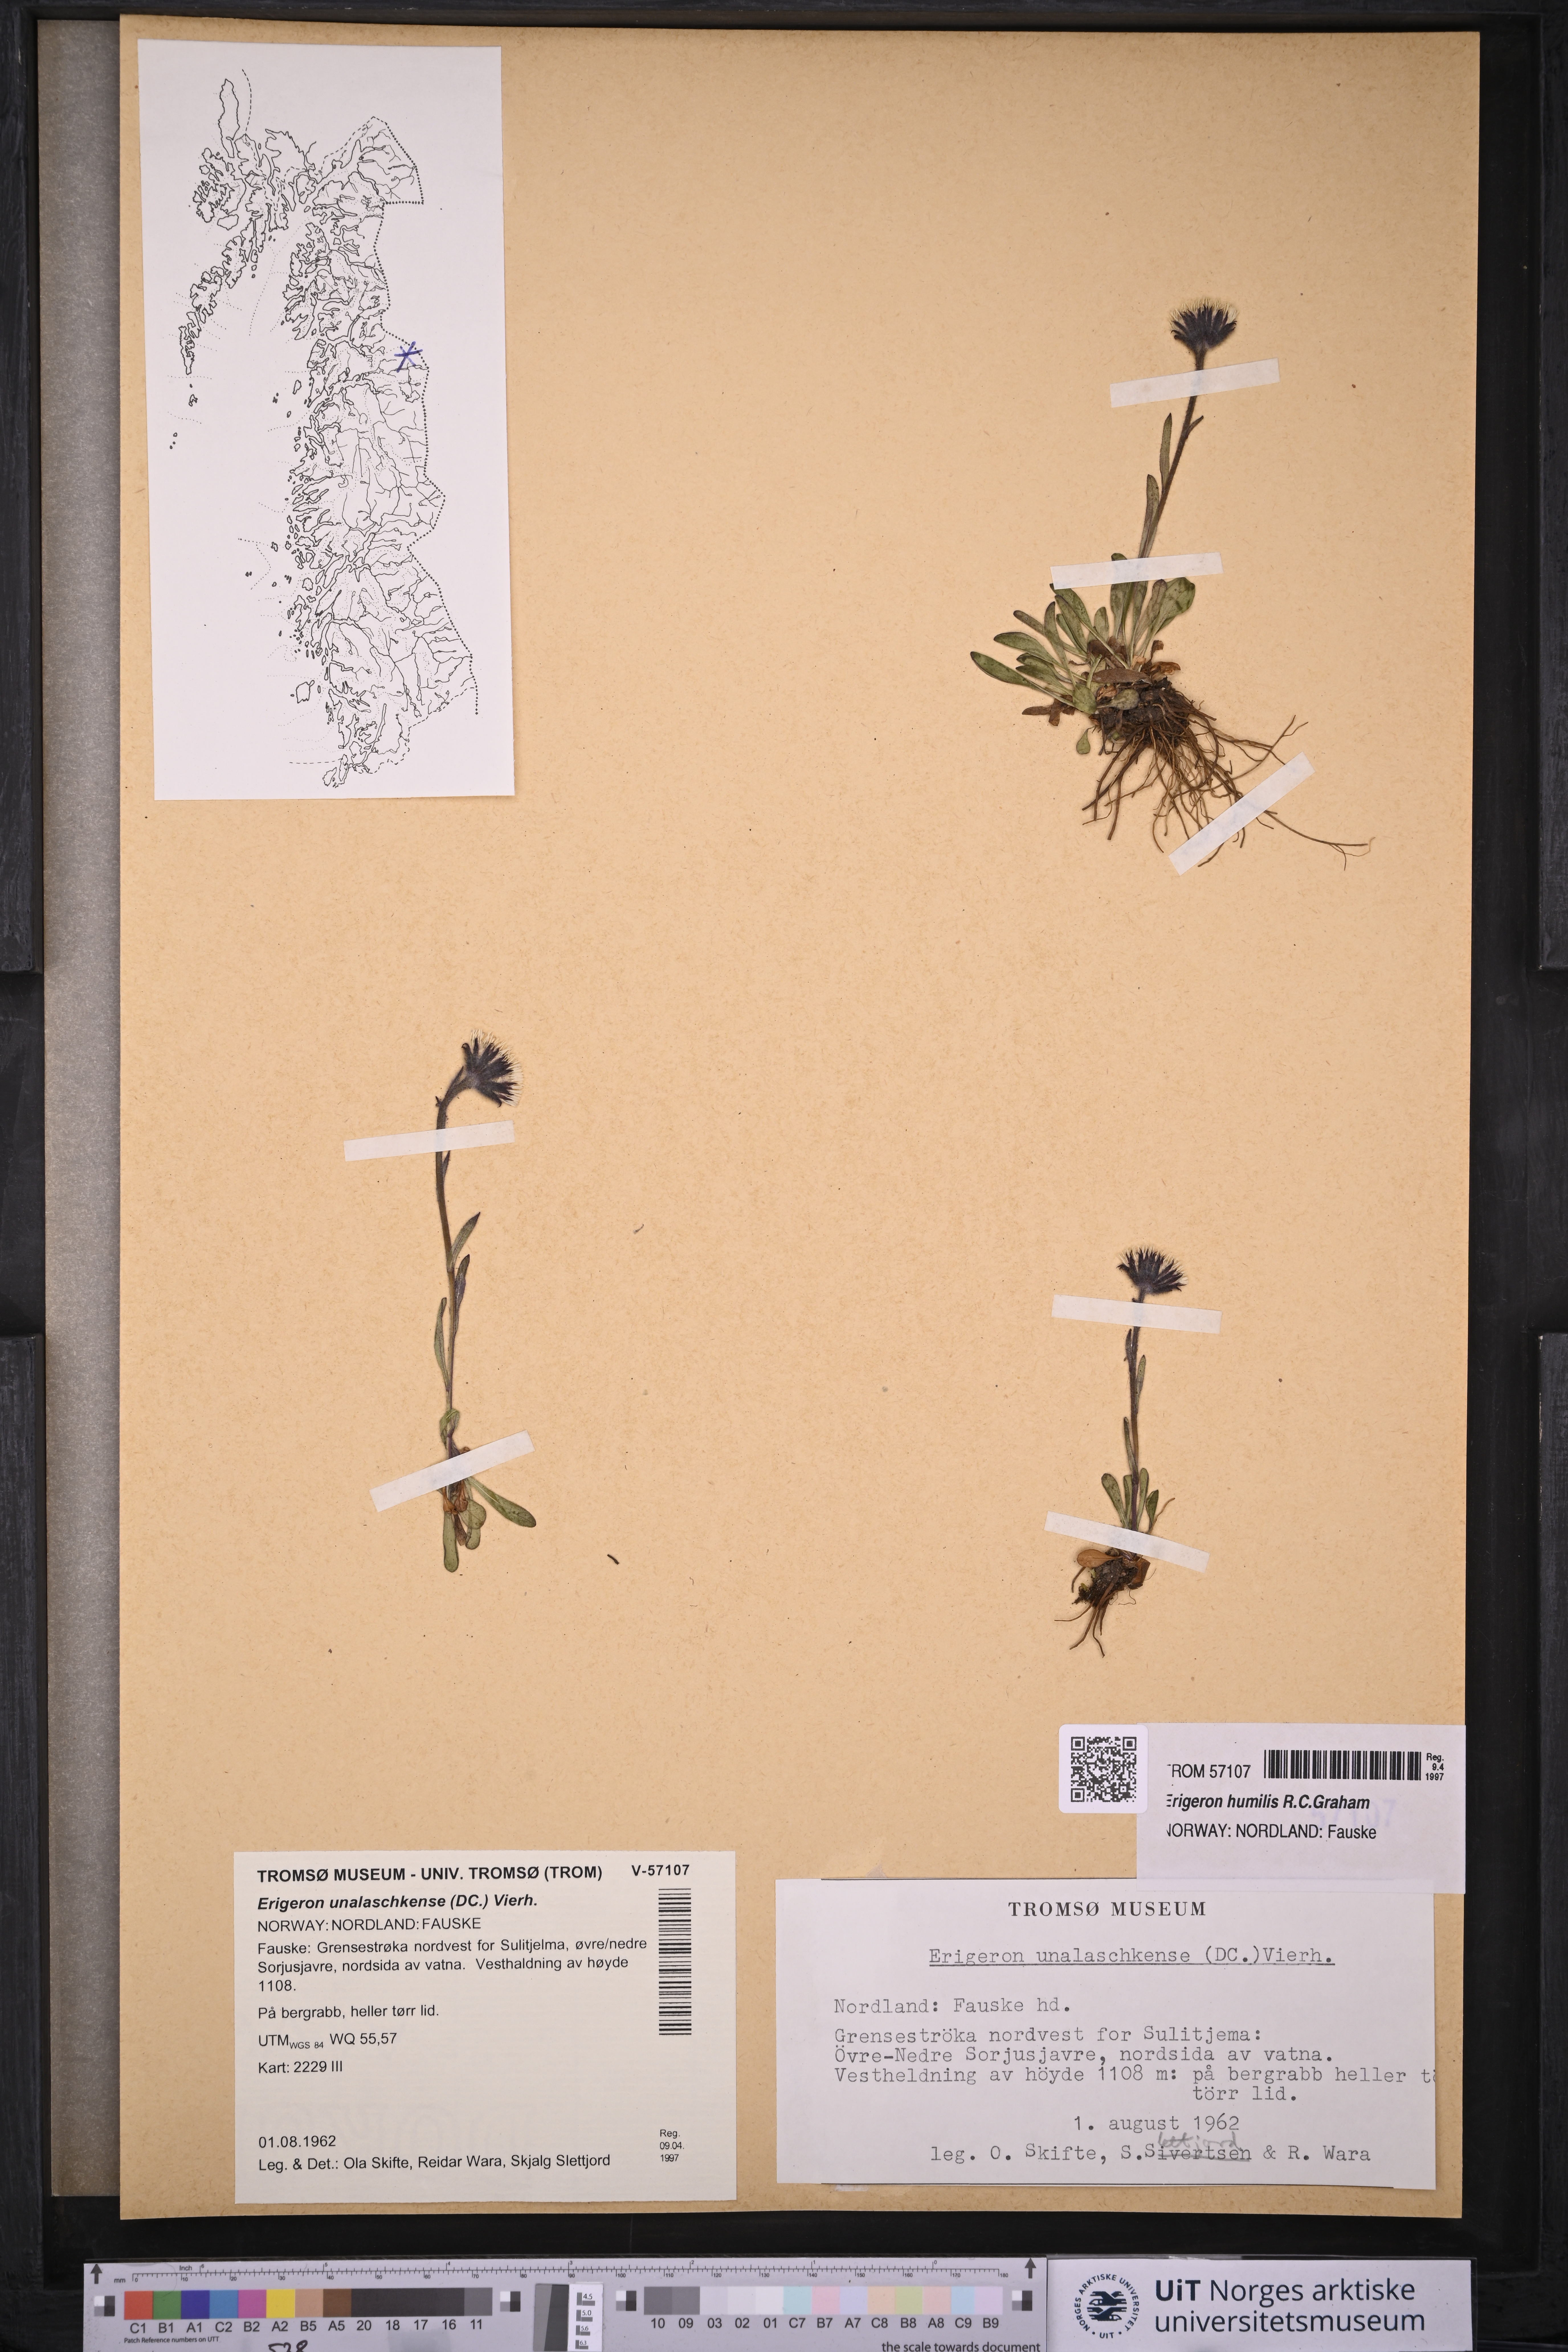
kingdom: Plantae
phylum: Tracheophyta
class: Magnoliopsida
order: Asterales
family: Asteraceae
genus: Erigeron
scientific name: Erigeron humilis
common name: Arctic-alpine fleabane
